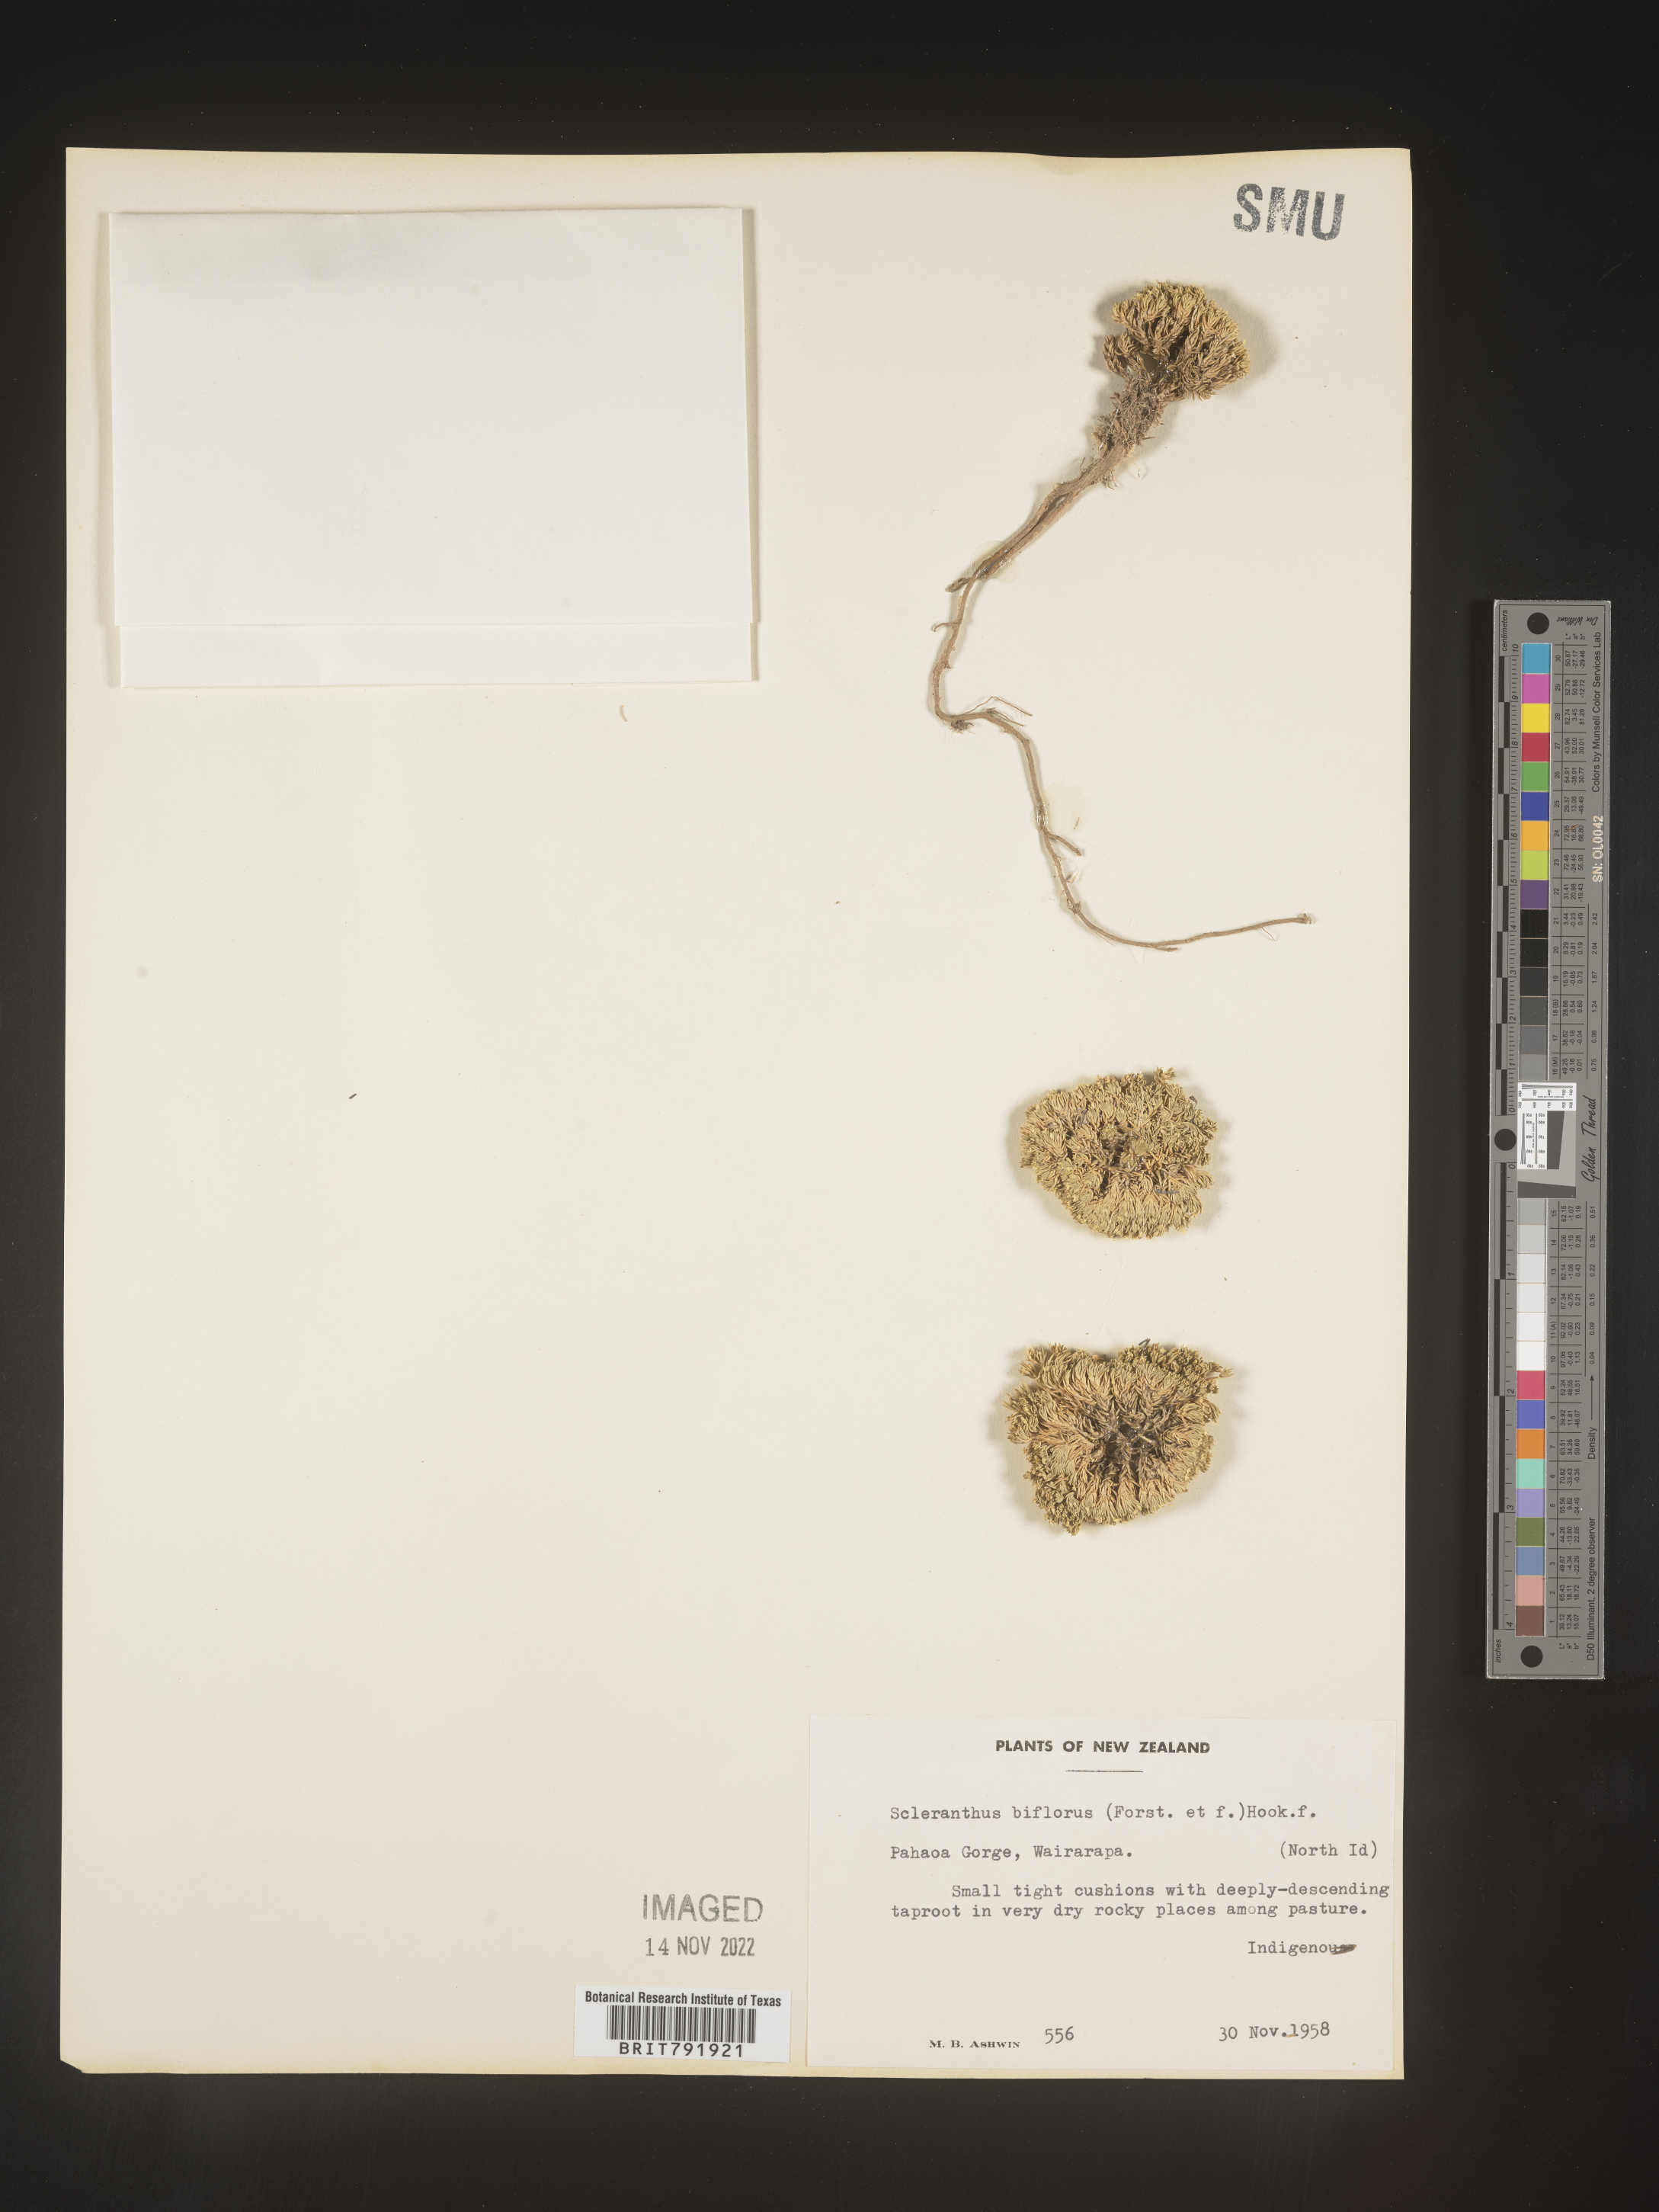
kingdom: Plantae
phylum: Tracheophyta
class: Magnoliopsida
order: Caryophyllales
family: Caryophyllaceae
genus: Scleranthus
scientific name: Scleranthus
